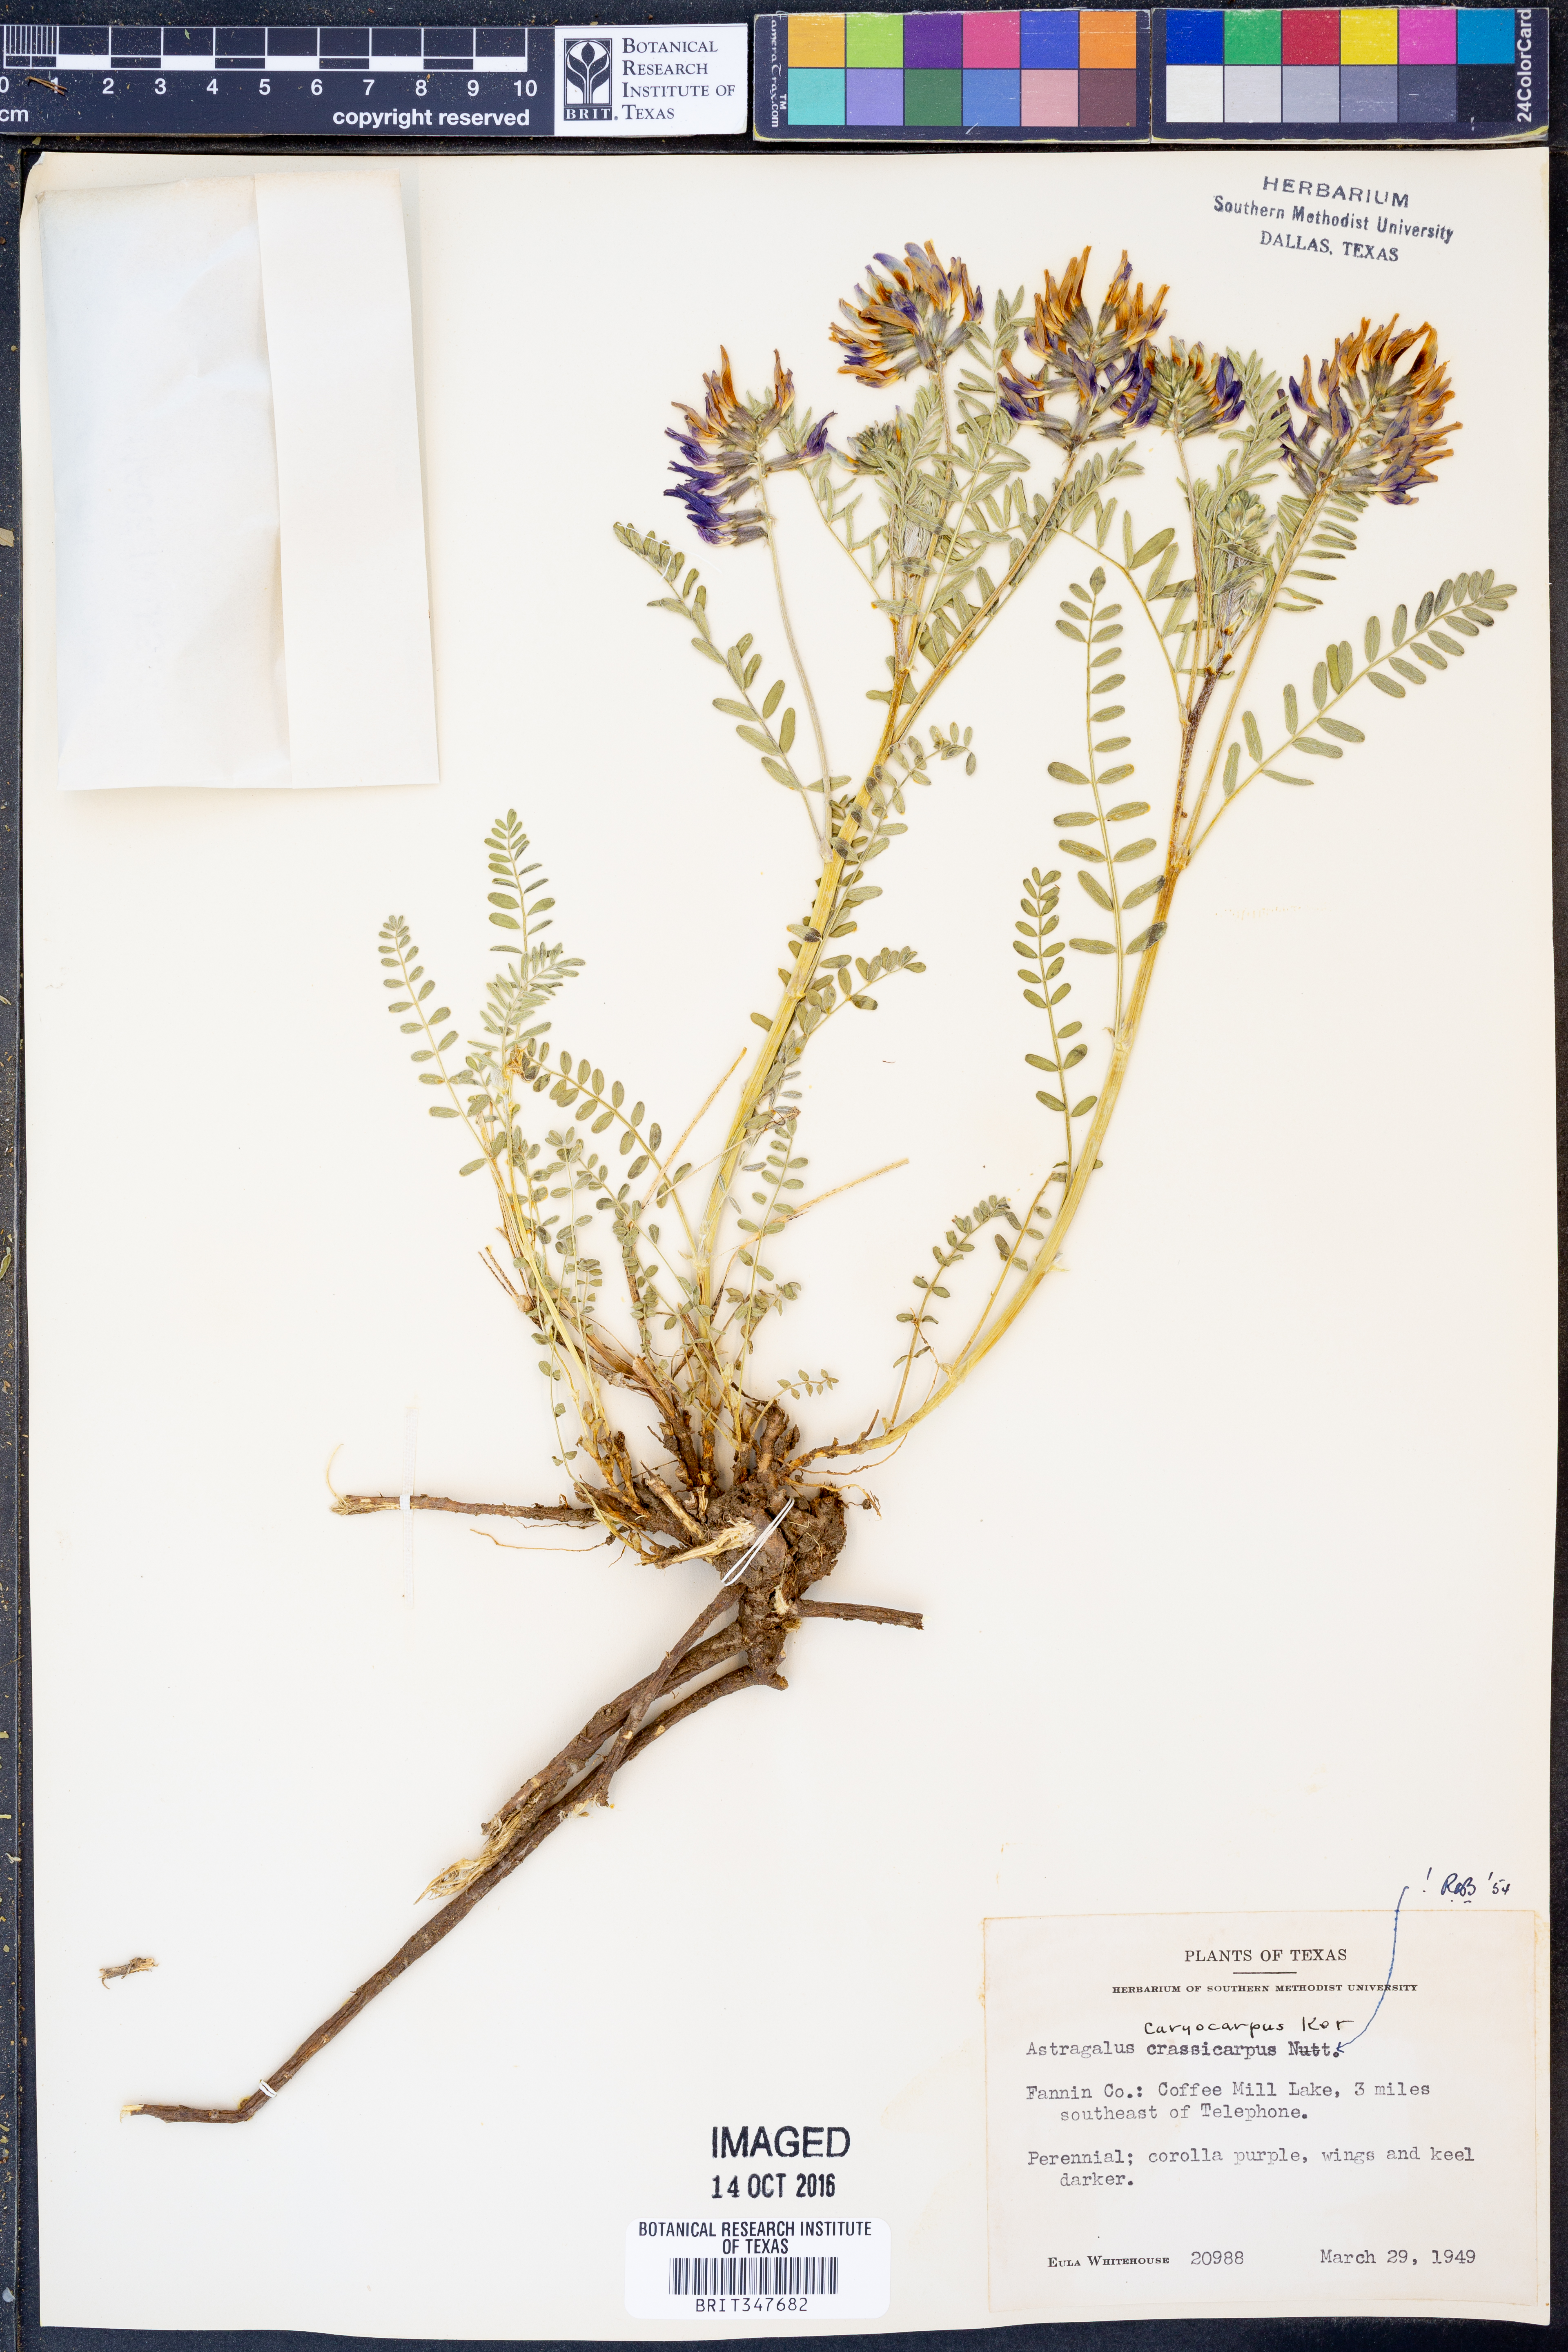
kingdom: Plantae
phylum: Tracheophyta
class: Magnoliopsida
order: Fabales
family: Fabaceae
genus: Astragalus
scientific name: Astragalus crassicarpus
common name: Ground-plum milk-vetch
